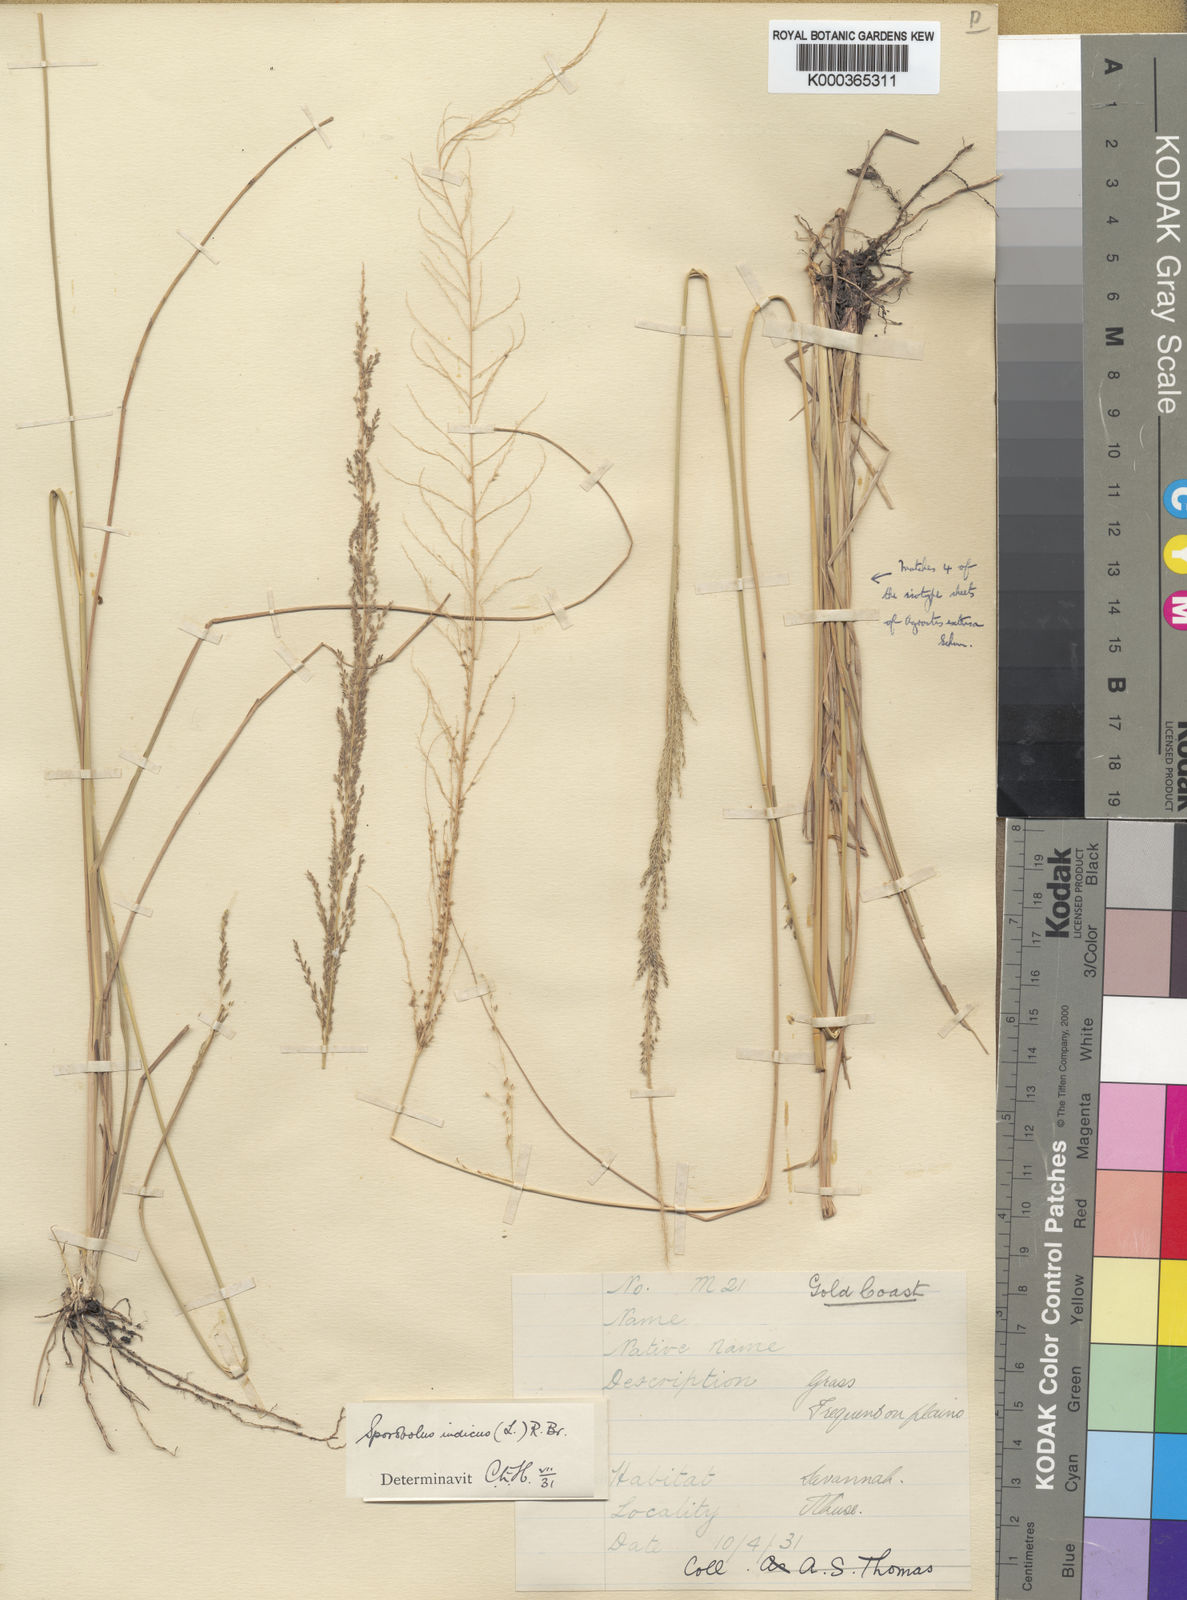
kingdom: Plantae
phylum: Tracheophyta
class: Liliopsida
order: Poales
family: Poaceae
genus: Sporobolus
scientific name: Sporobolus pyramidalis
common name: West indian dropseed
